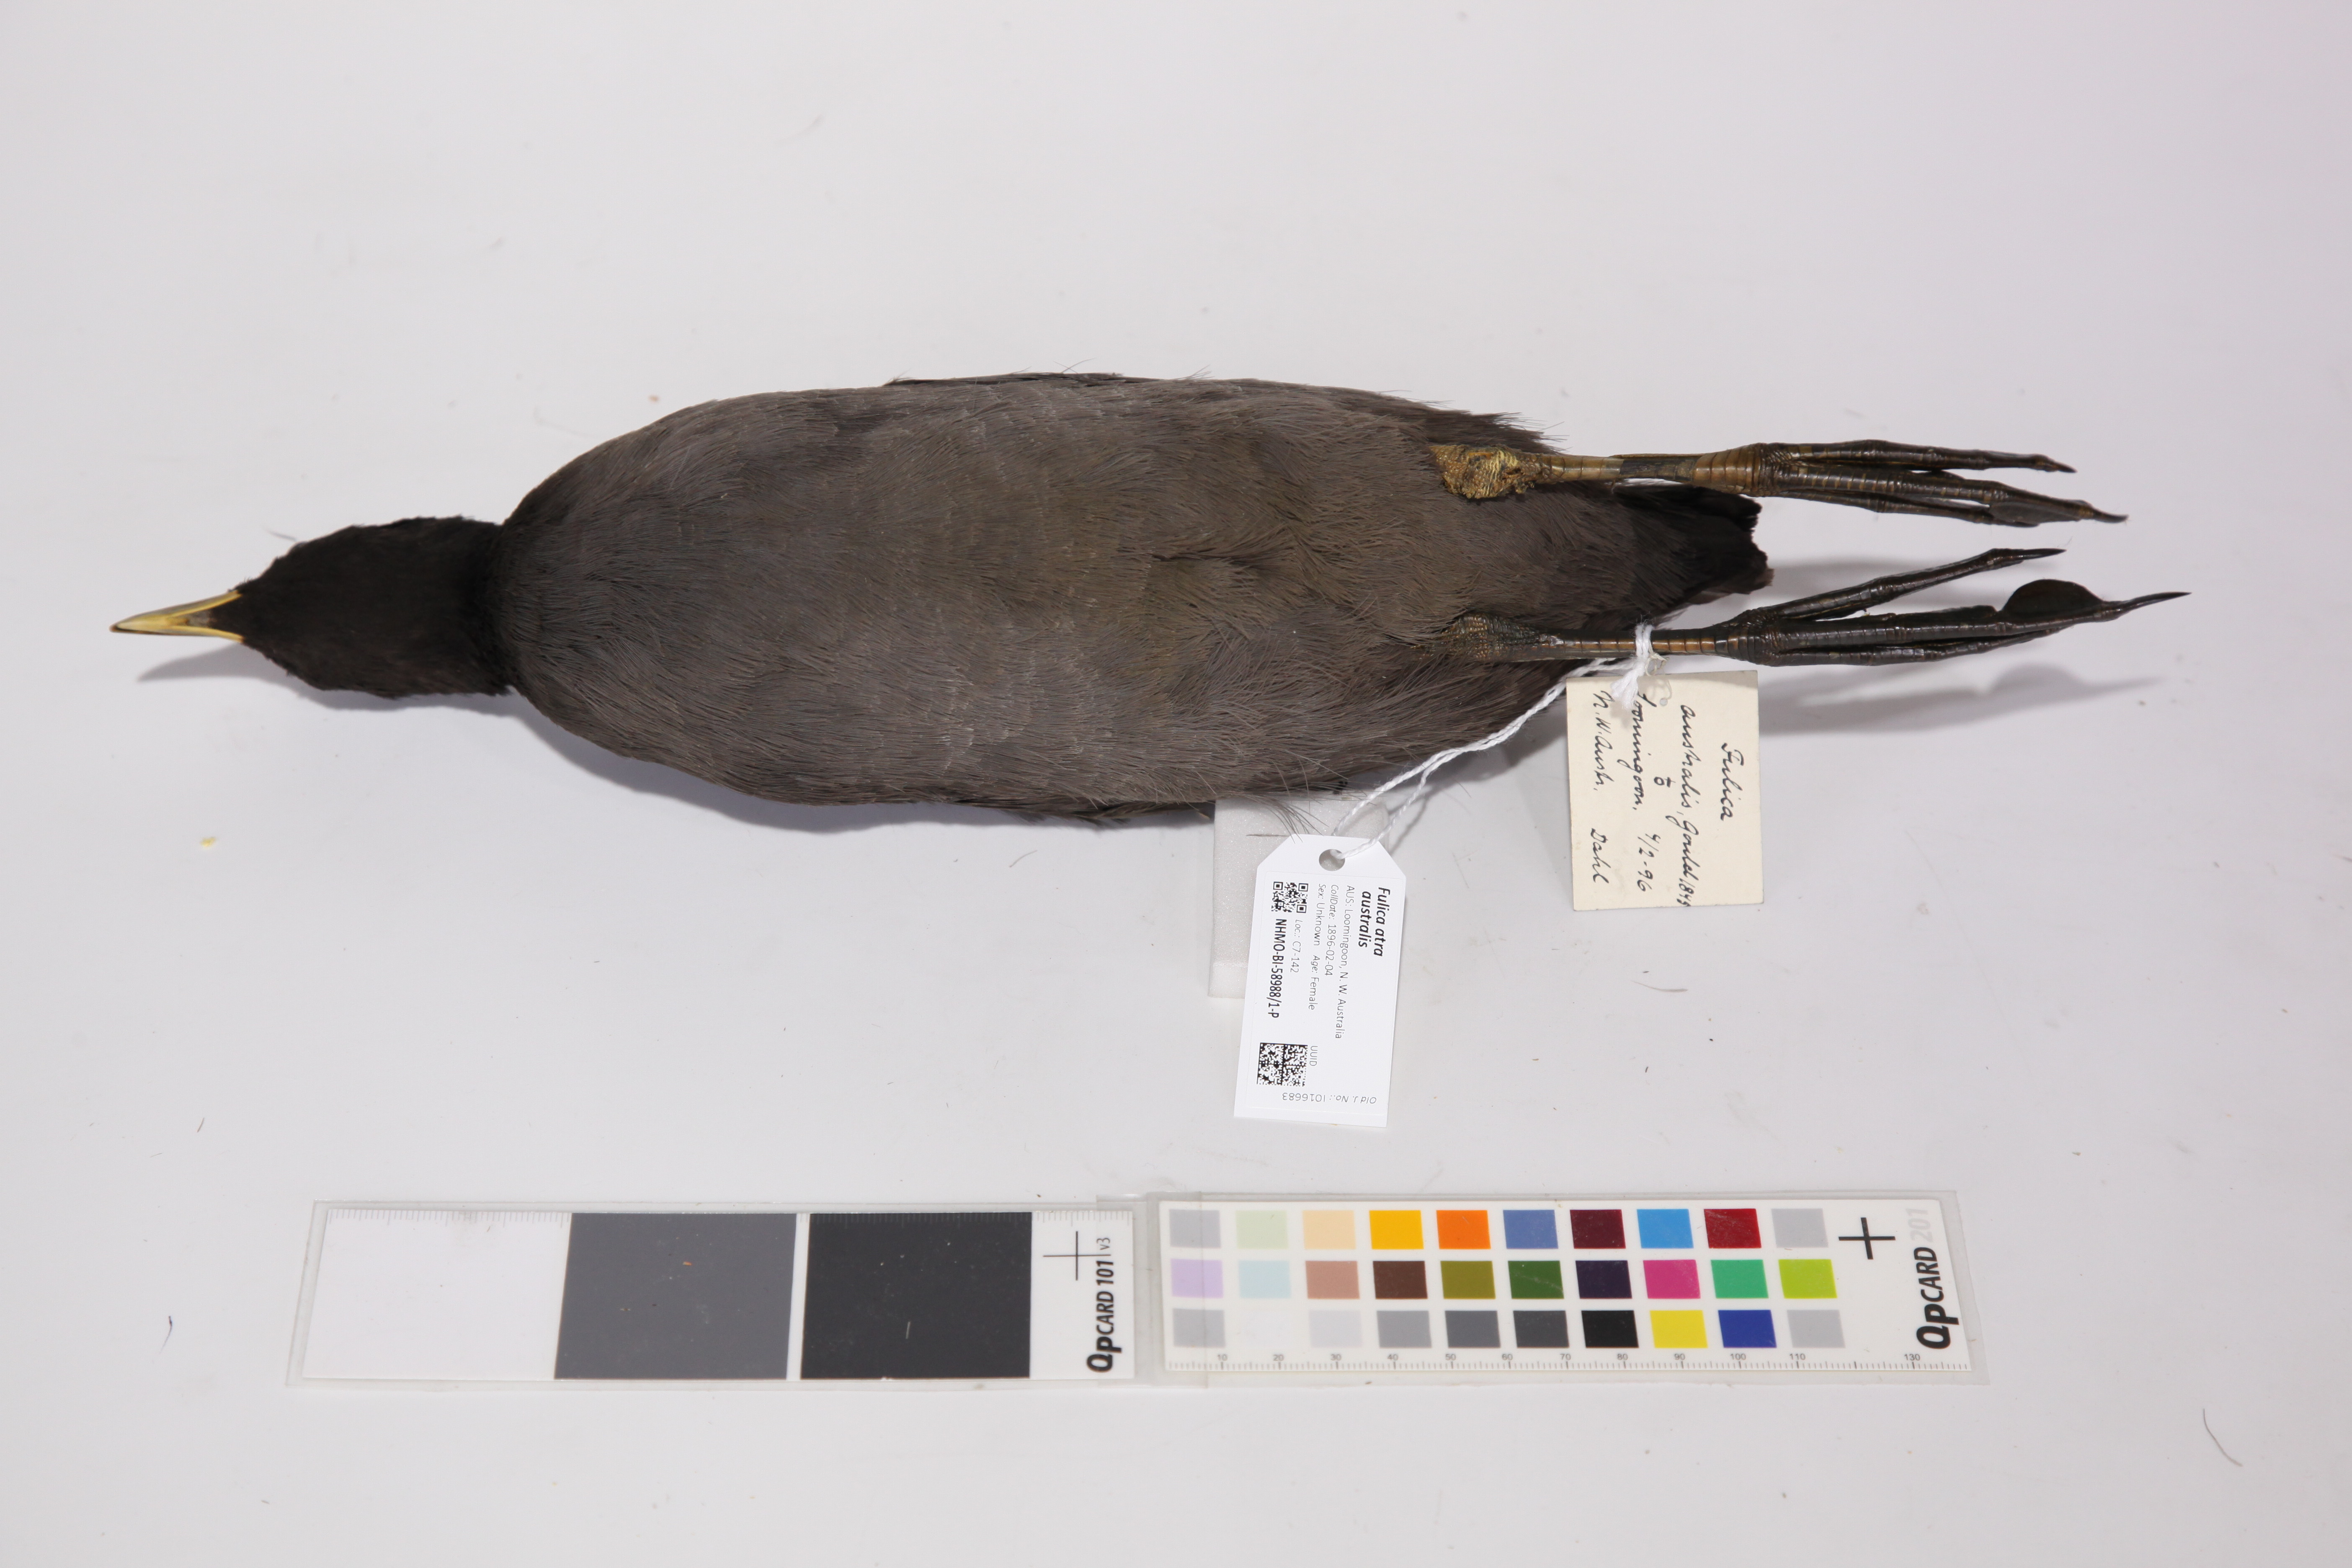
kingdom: Animalia
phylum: Chordata
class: Aves
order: Gruiformes
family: Rallidae
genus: Fulica
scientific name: Fulica atra
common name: Eurasian coot
